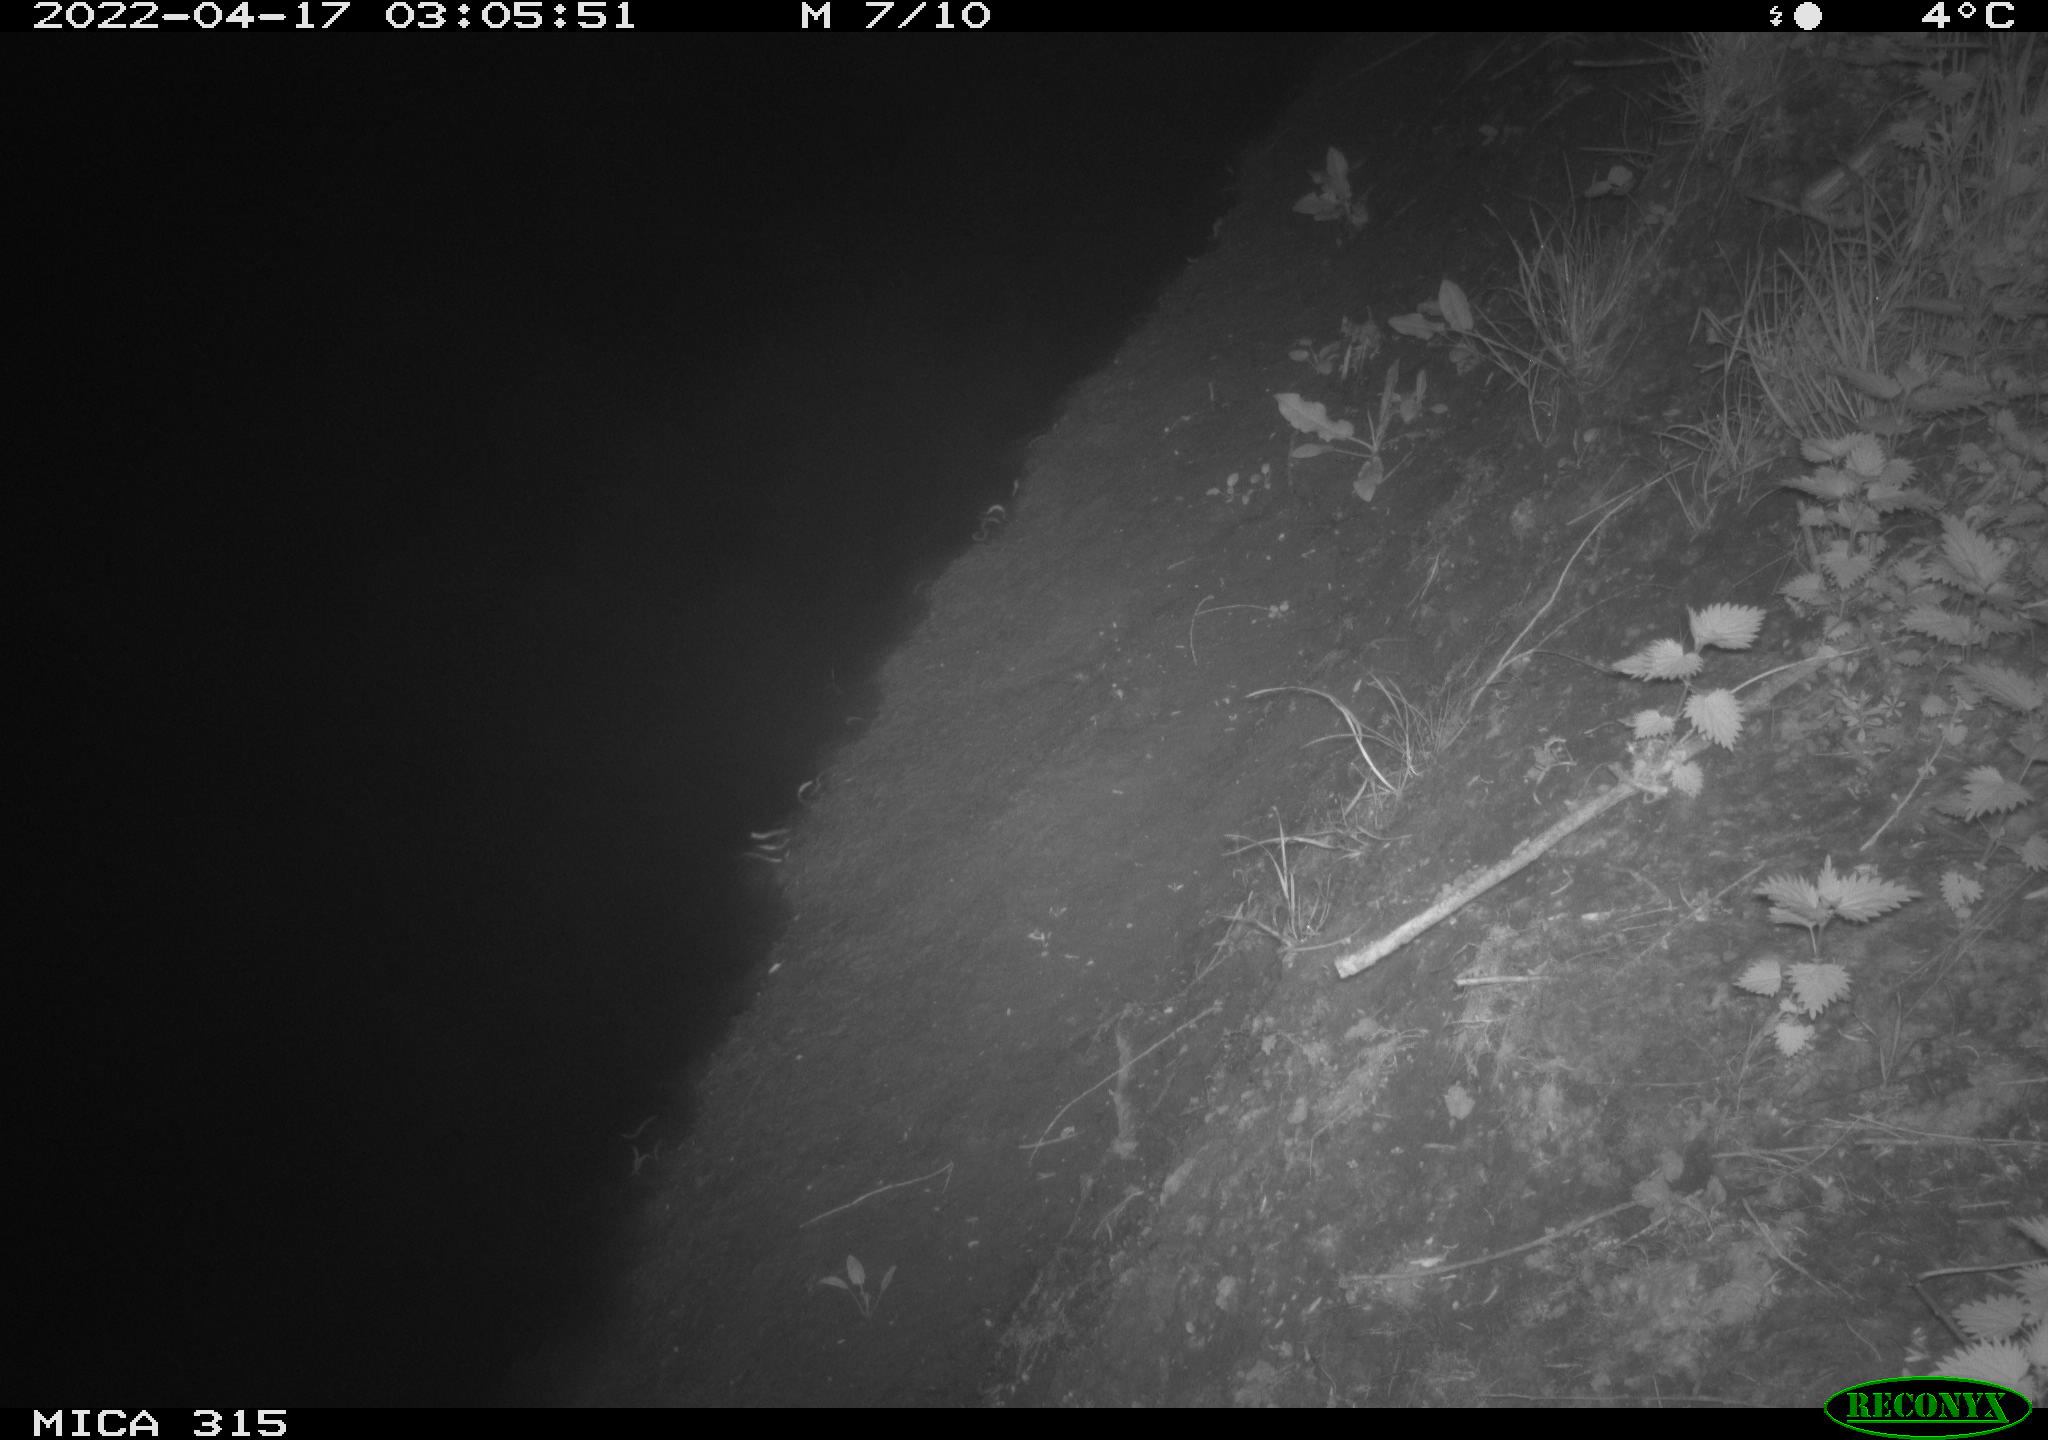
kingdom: Animalia
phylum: Chordata
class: Mammalia
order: Rodentia
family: Muridae
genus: Rattus
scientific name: Rattus norvegicus
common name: Brown rat
